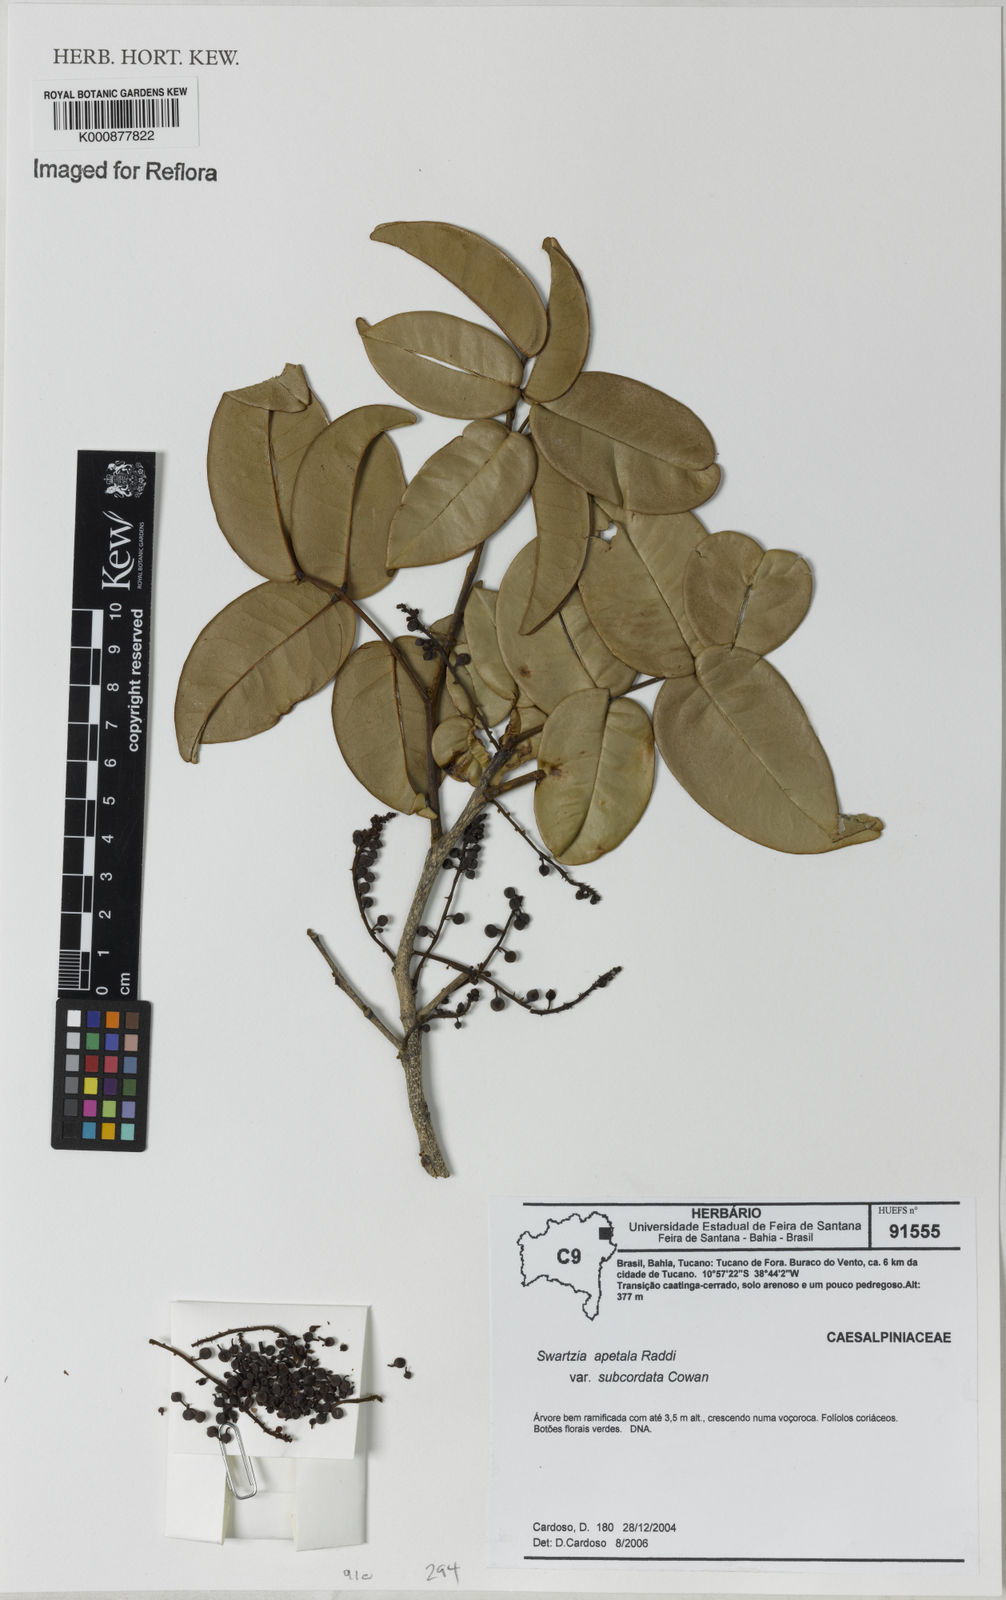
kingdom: Plantae
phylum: Tracheophyta
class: Magnoliopsida
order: Fabales
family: Fabaceae
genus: Swartzia
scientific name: Swartzia apetala
